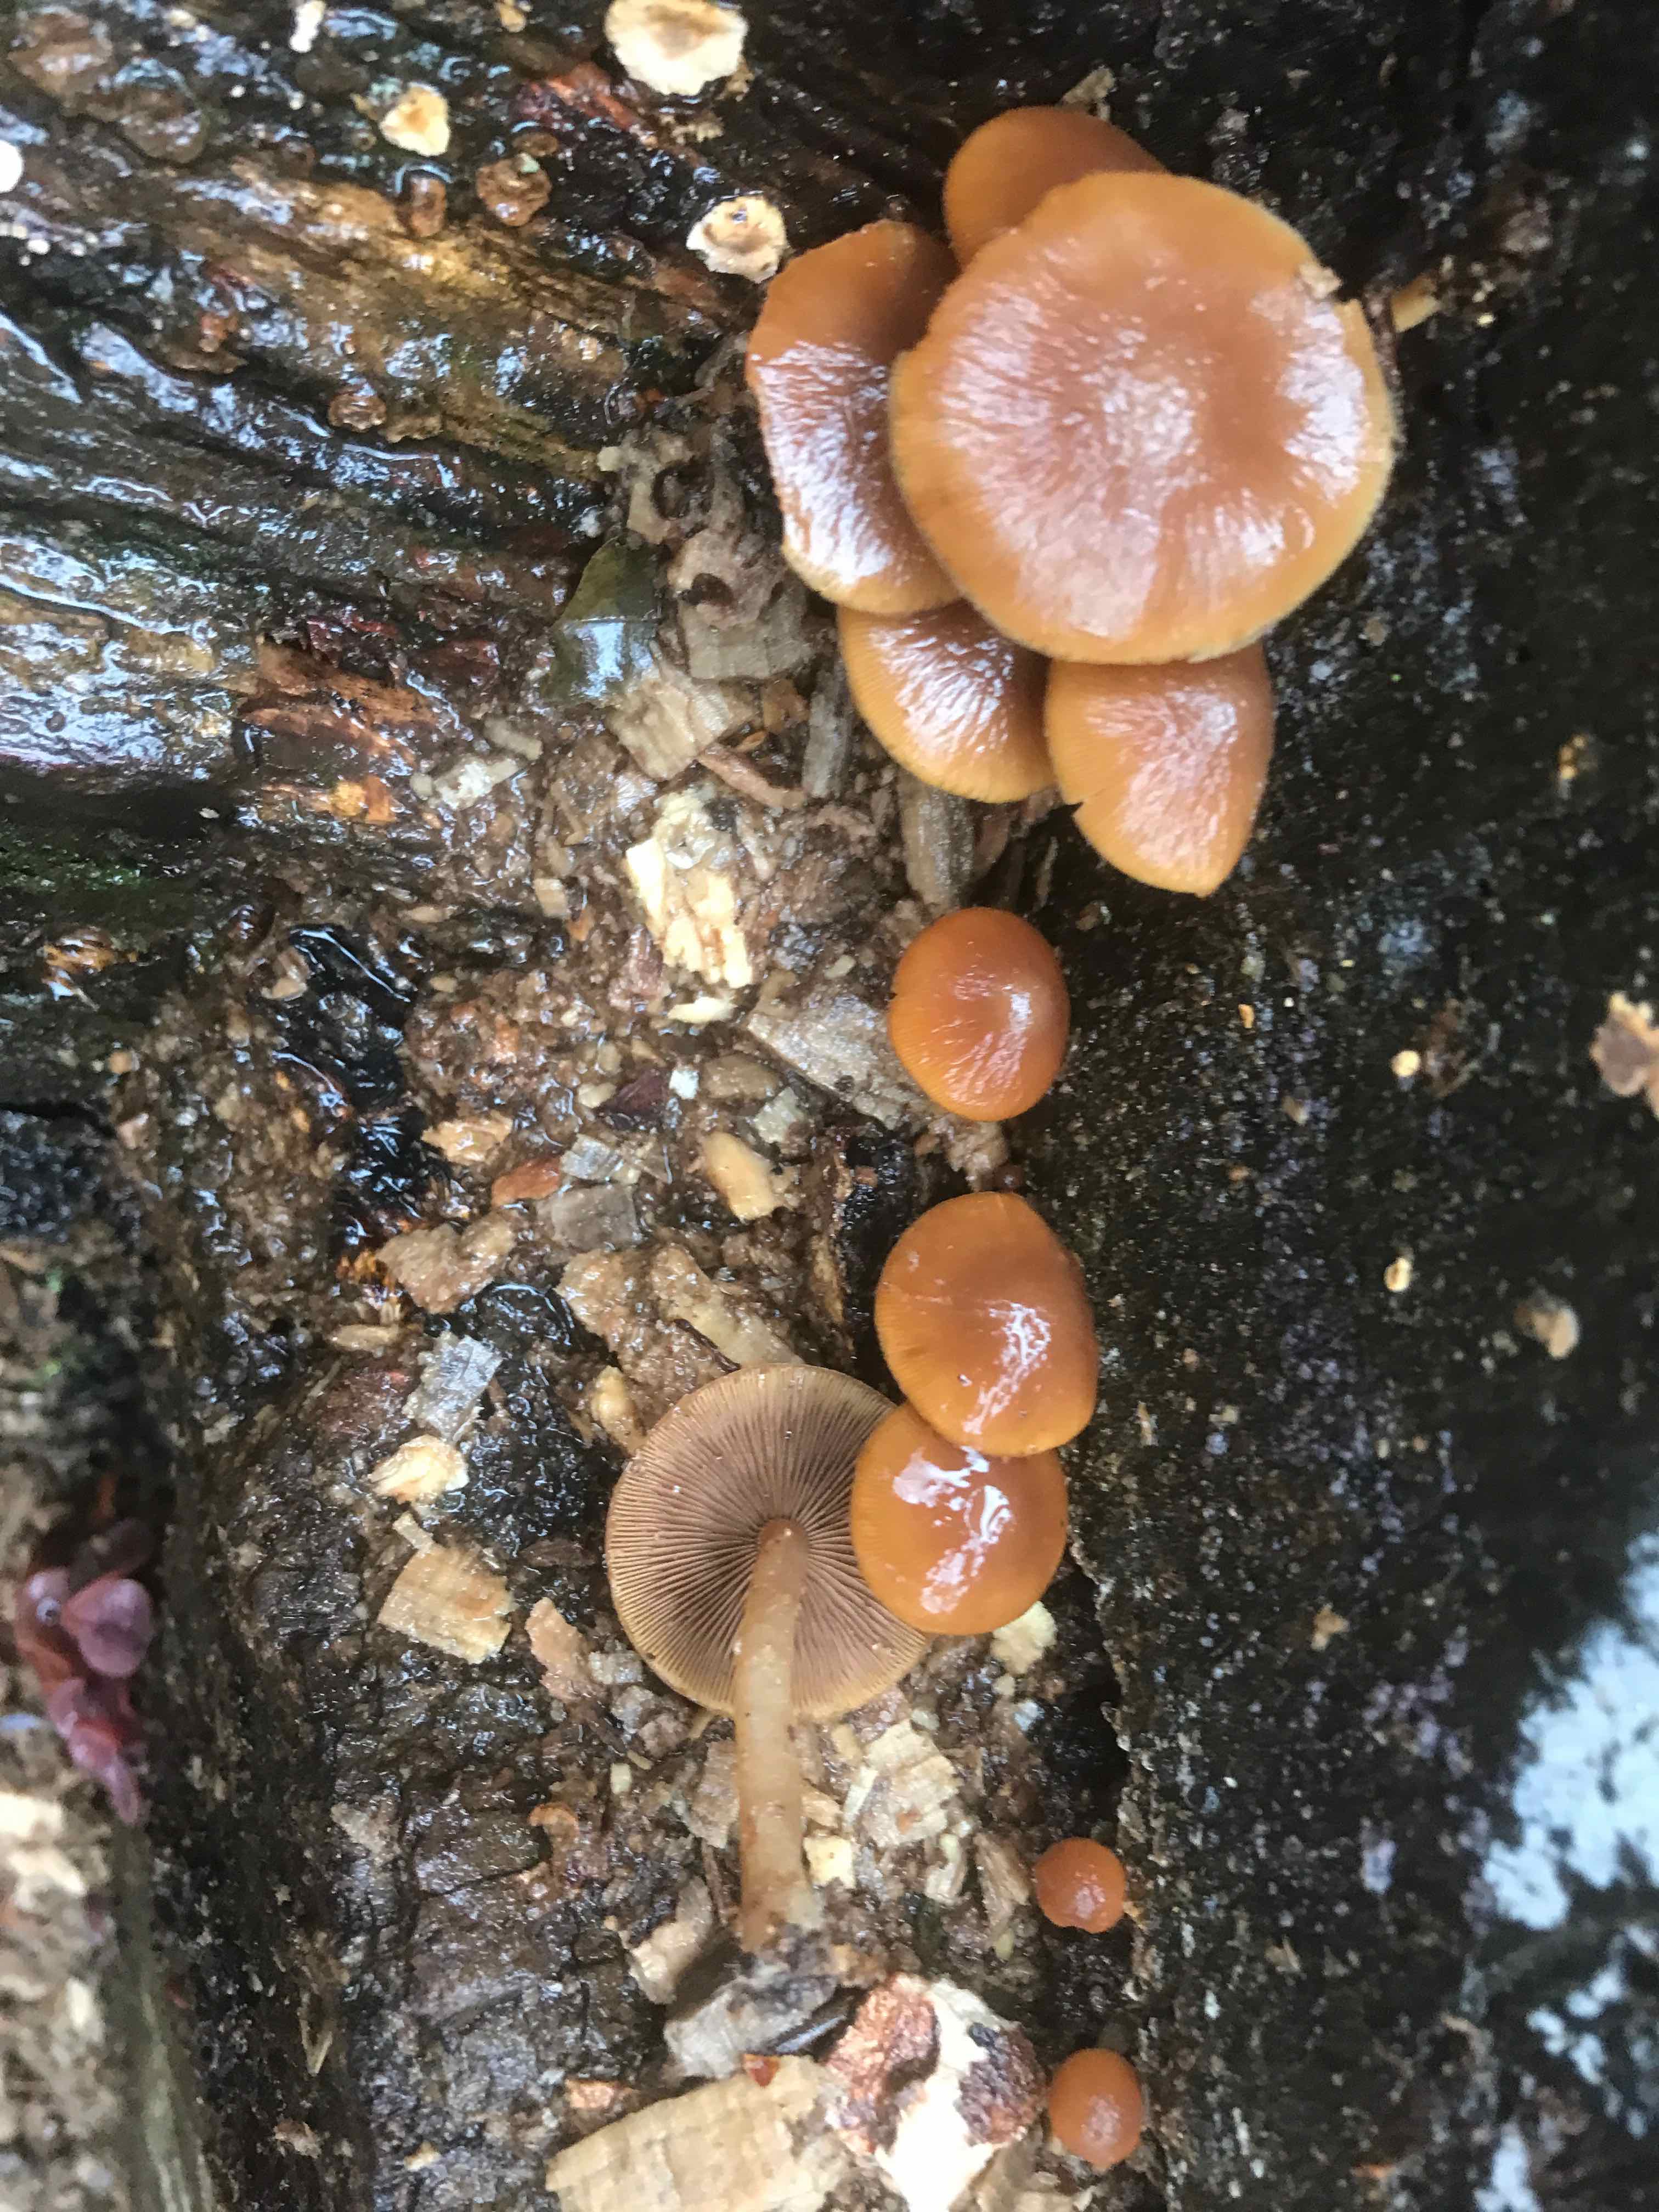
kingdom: Fungi
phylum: Basidiomycota
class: Agaricomycetes
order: Agaricales
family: Psathyrellaceae
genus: Psathyrella
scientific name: Psathyrella piluliformis
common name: lysstokket mørkhat
